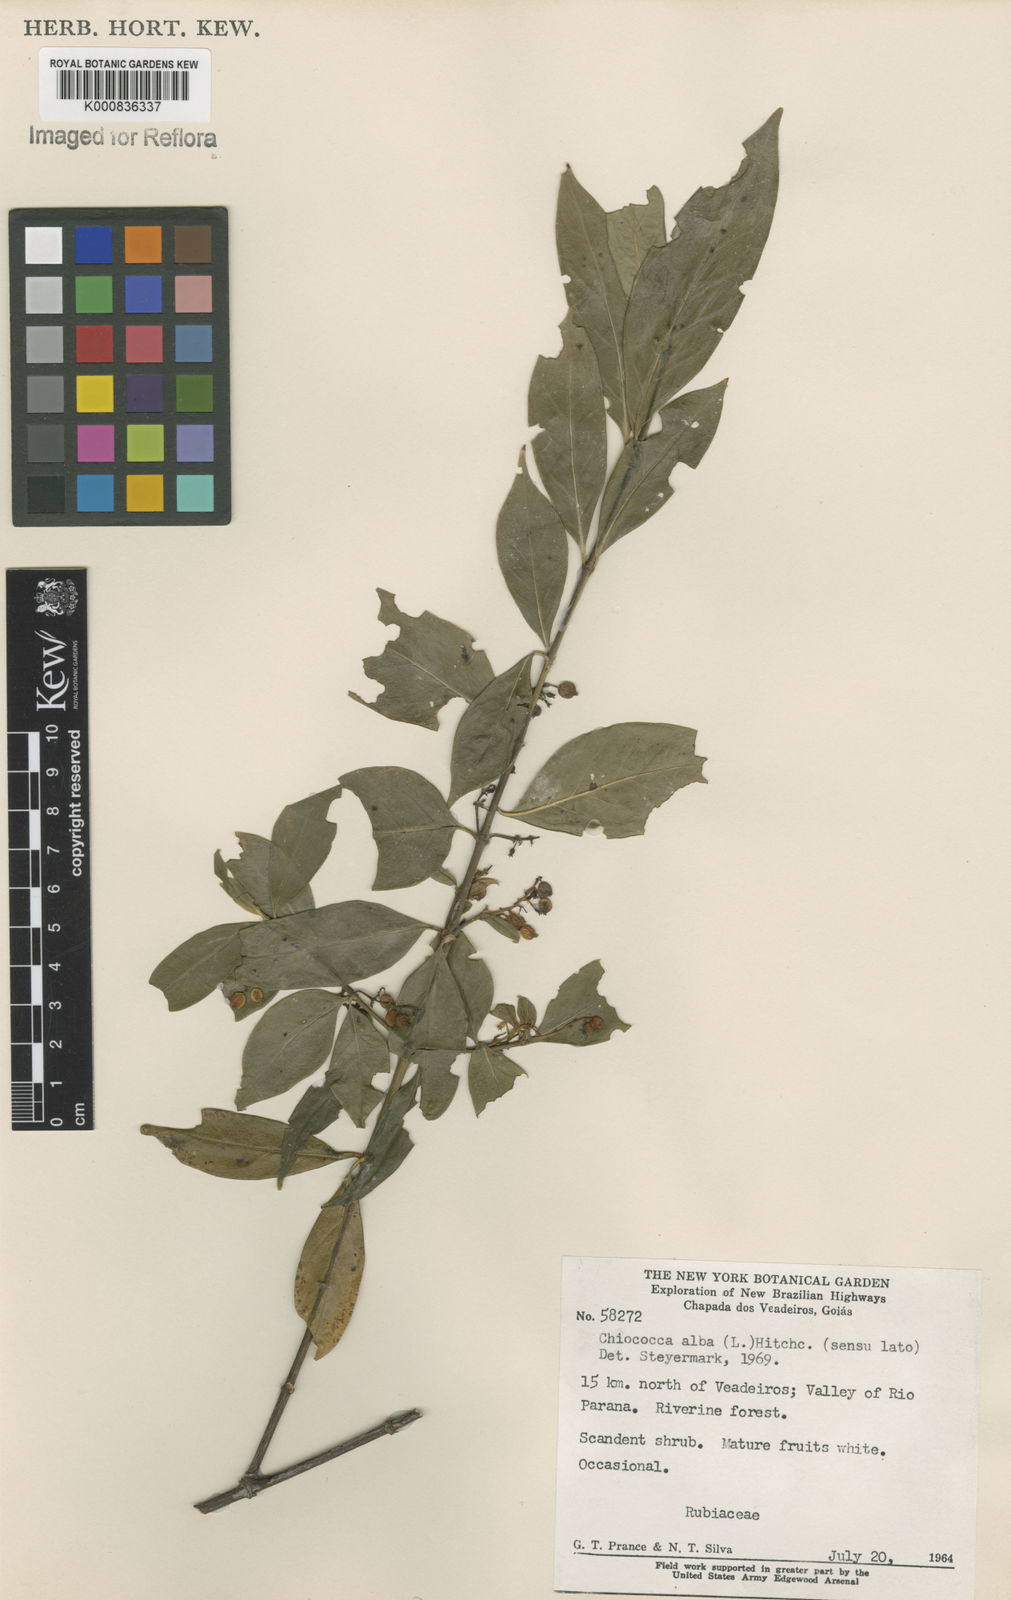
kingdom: Plantae
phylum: Tracheophyta
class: Magnoliopsida
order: Gentianales
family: Rubiaceae
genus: Chiococca
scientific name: Chiococca alba
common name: Snowberry
